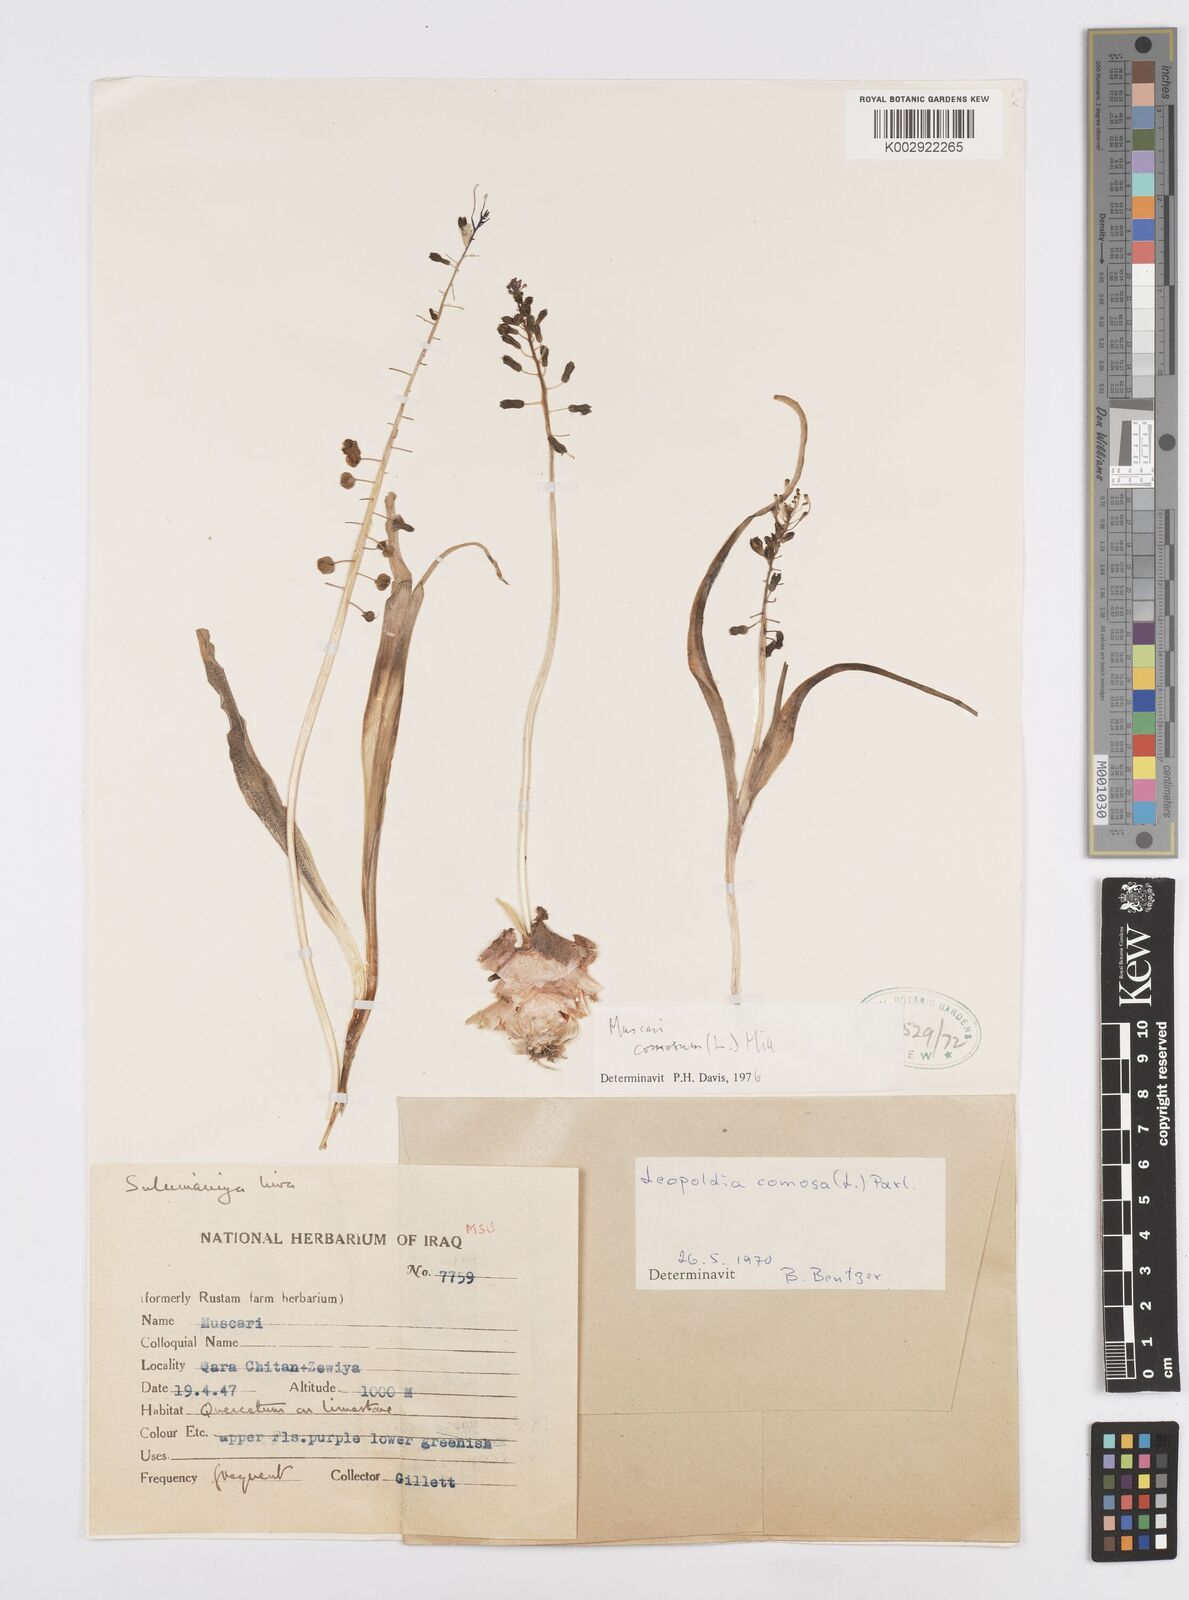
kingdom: Plantae
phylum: Tracheophyta
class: Liliopsida
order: Asparagales
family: Asparagaceae
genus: Muscari
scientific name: Muscari comosum
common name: Tassel hyacinth
